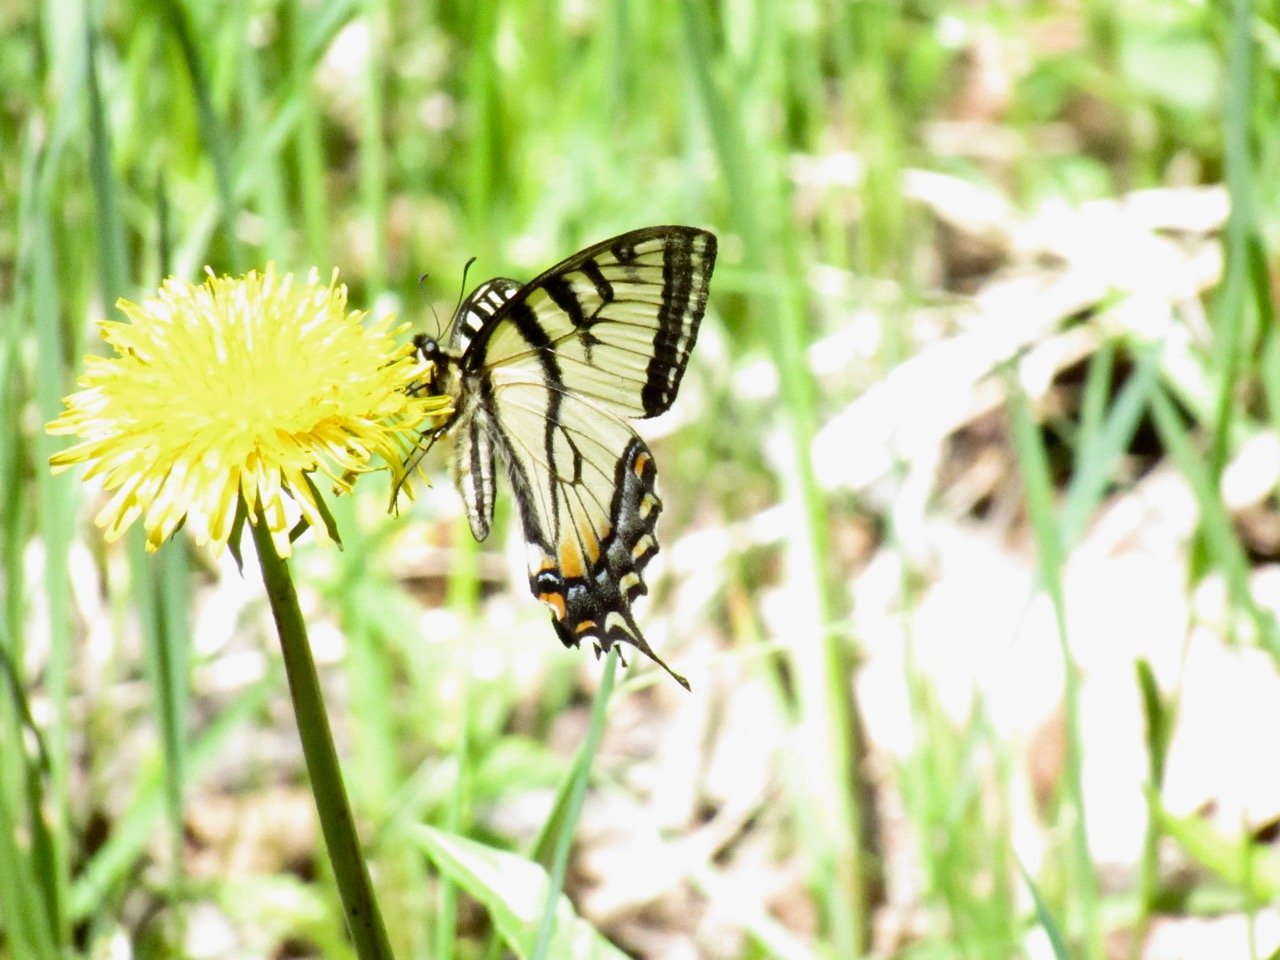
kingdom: Animalia
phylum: Arthropoda
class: Insecta
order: Lepidoptera
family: Papilionidae
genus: Pterourus
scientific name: Pterourus canadensis
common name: Canadian Tiger Swallowtail
